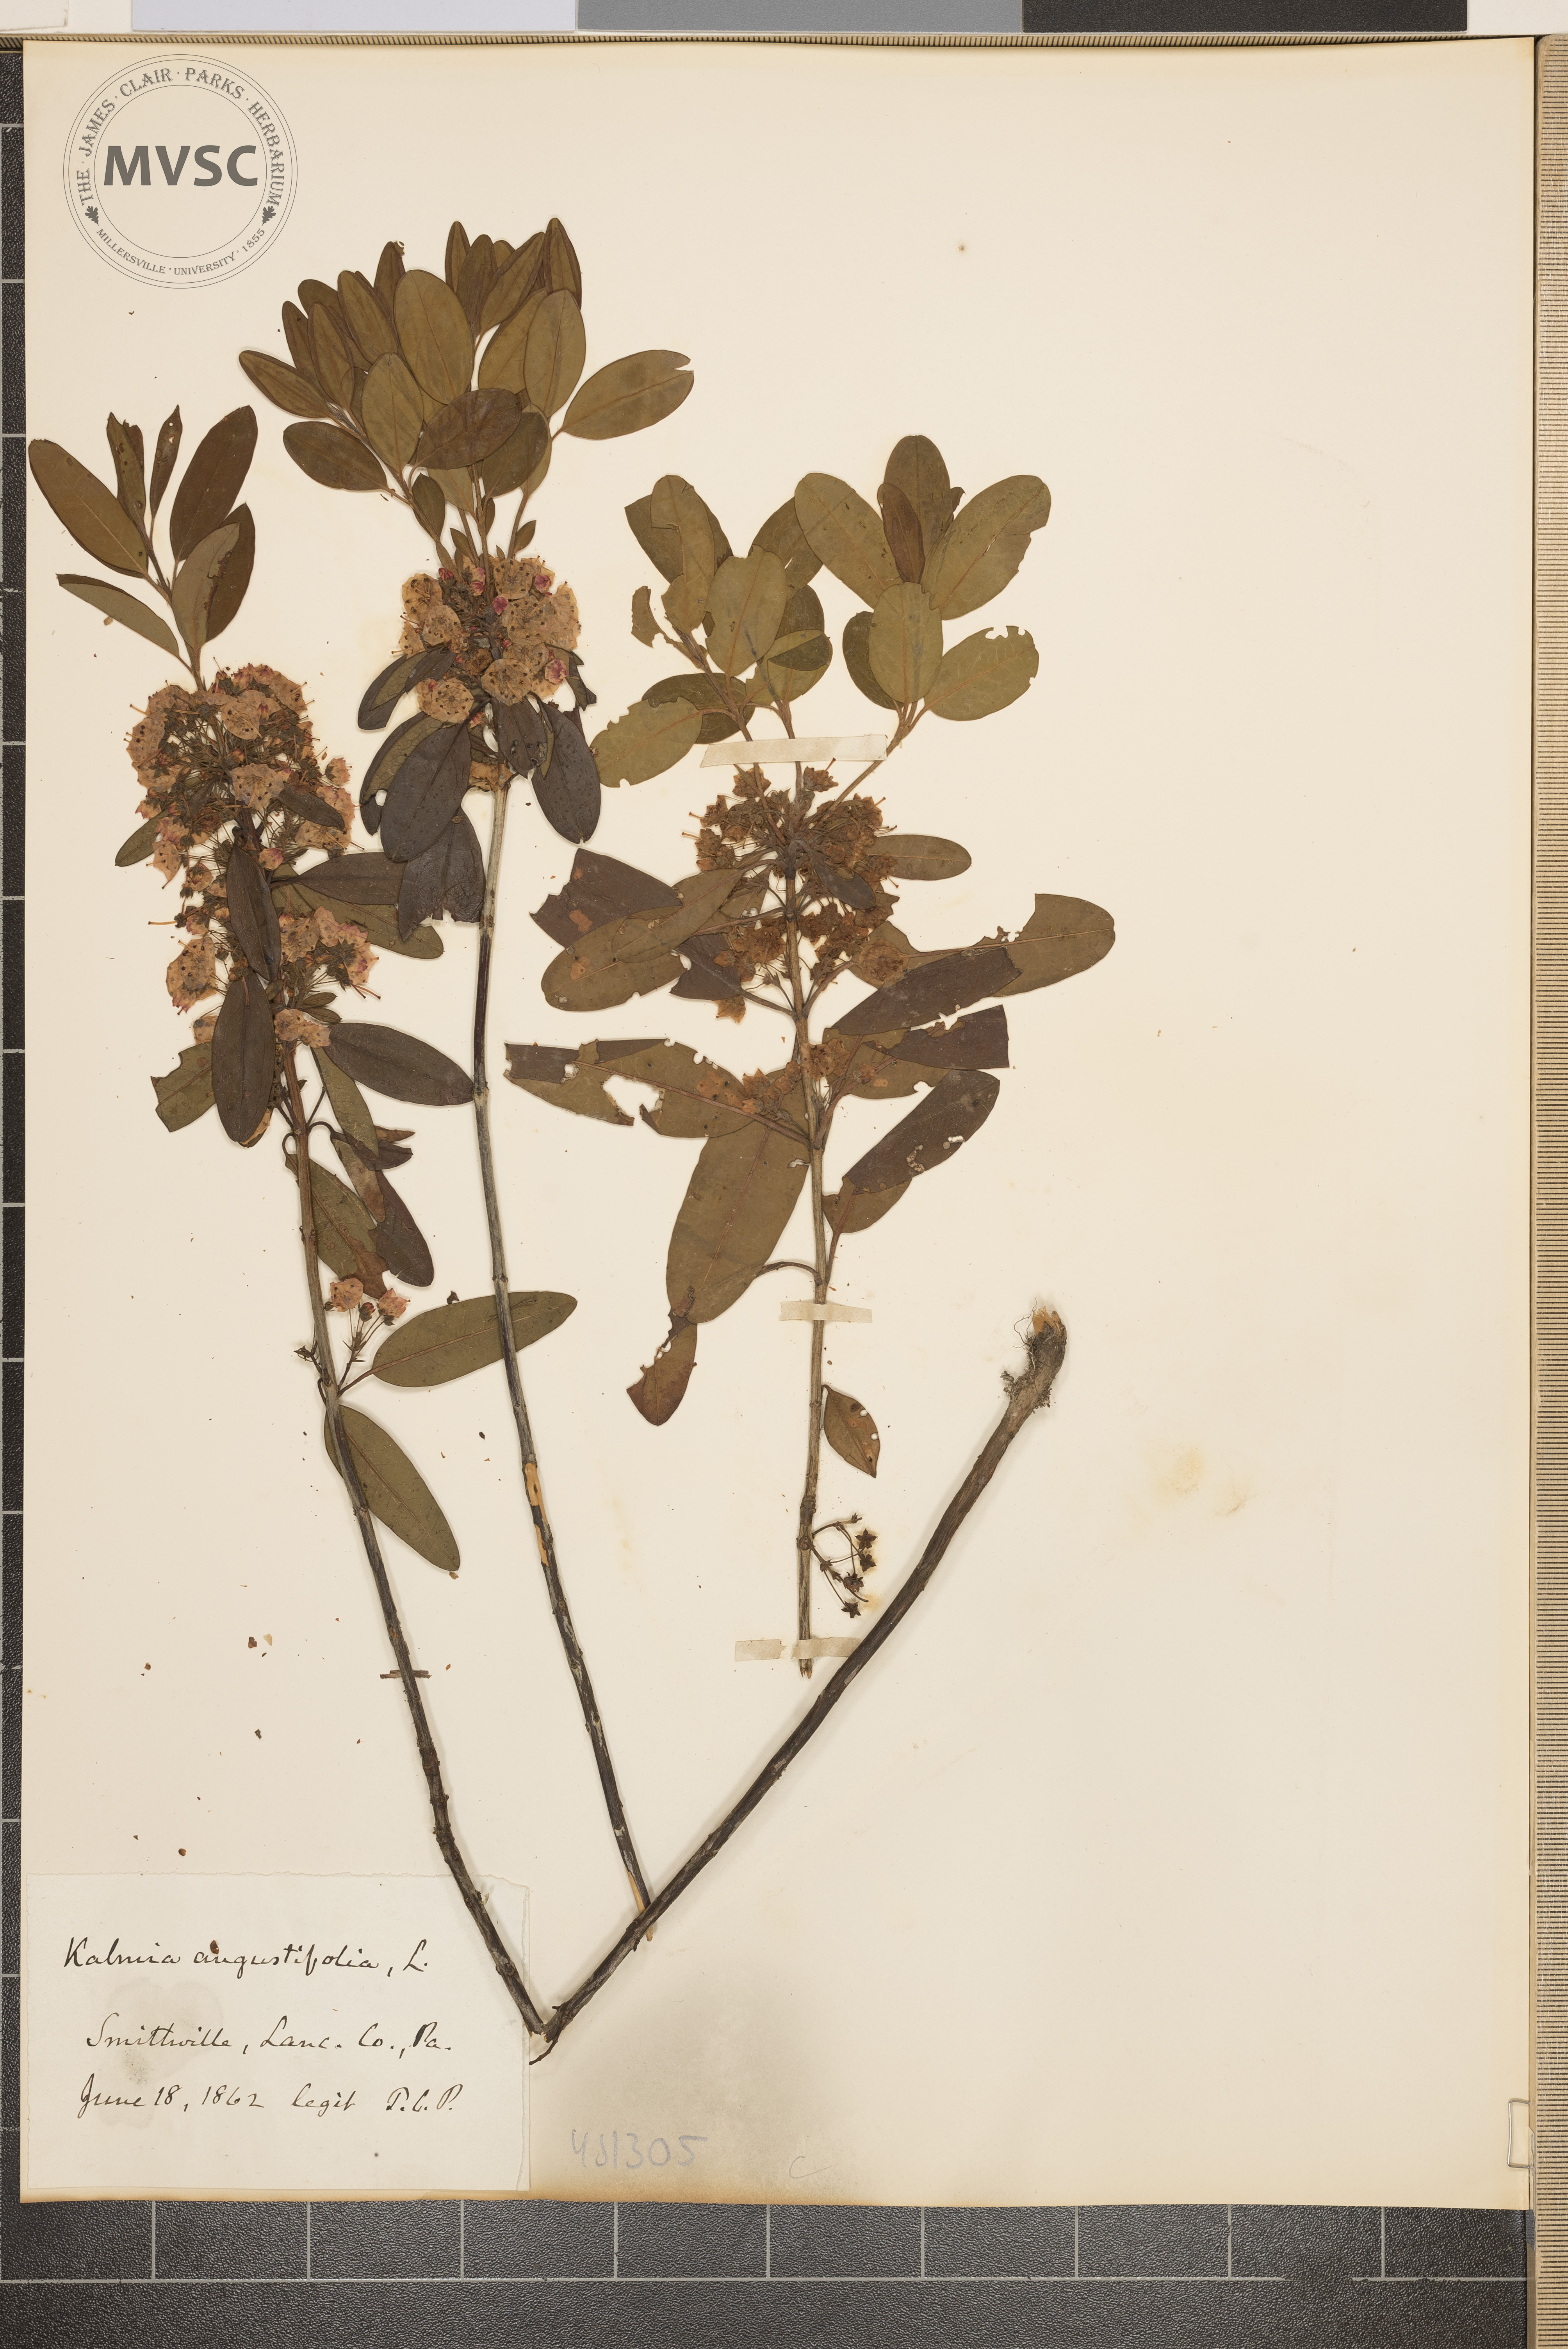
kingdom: Plantae
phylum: Tracheophyta
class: Magnoliopsida
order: Ericales
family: Ericaceae
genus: Kalmia
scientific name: Kalmia angustifolia
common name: Sheep-laurel
